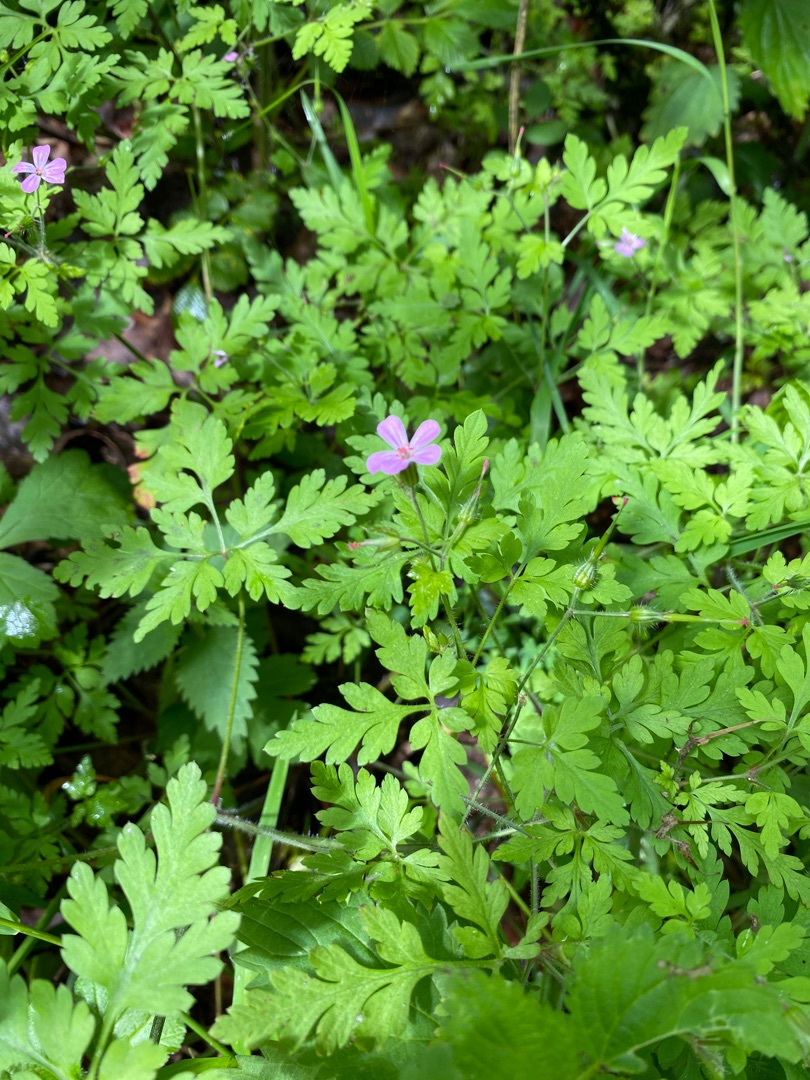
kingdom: Plantae
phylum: Tracheophyta
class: Magnoliopsida
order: Geraniales
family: Geraniaceae
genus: Geranium
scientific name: Geranium robertianum
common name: Stinkende storkenæb
